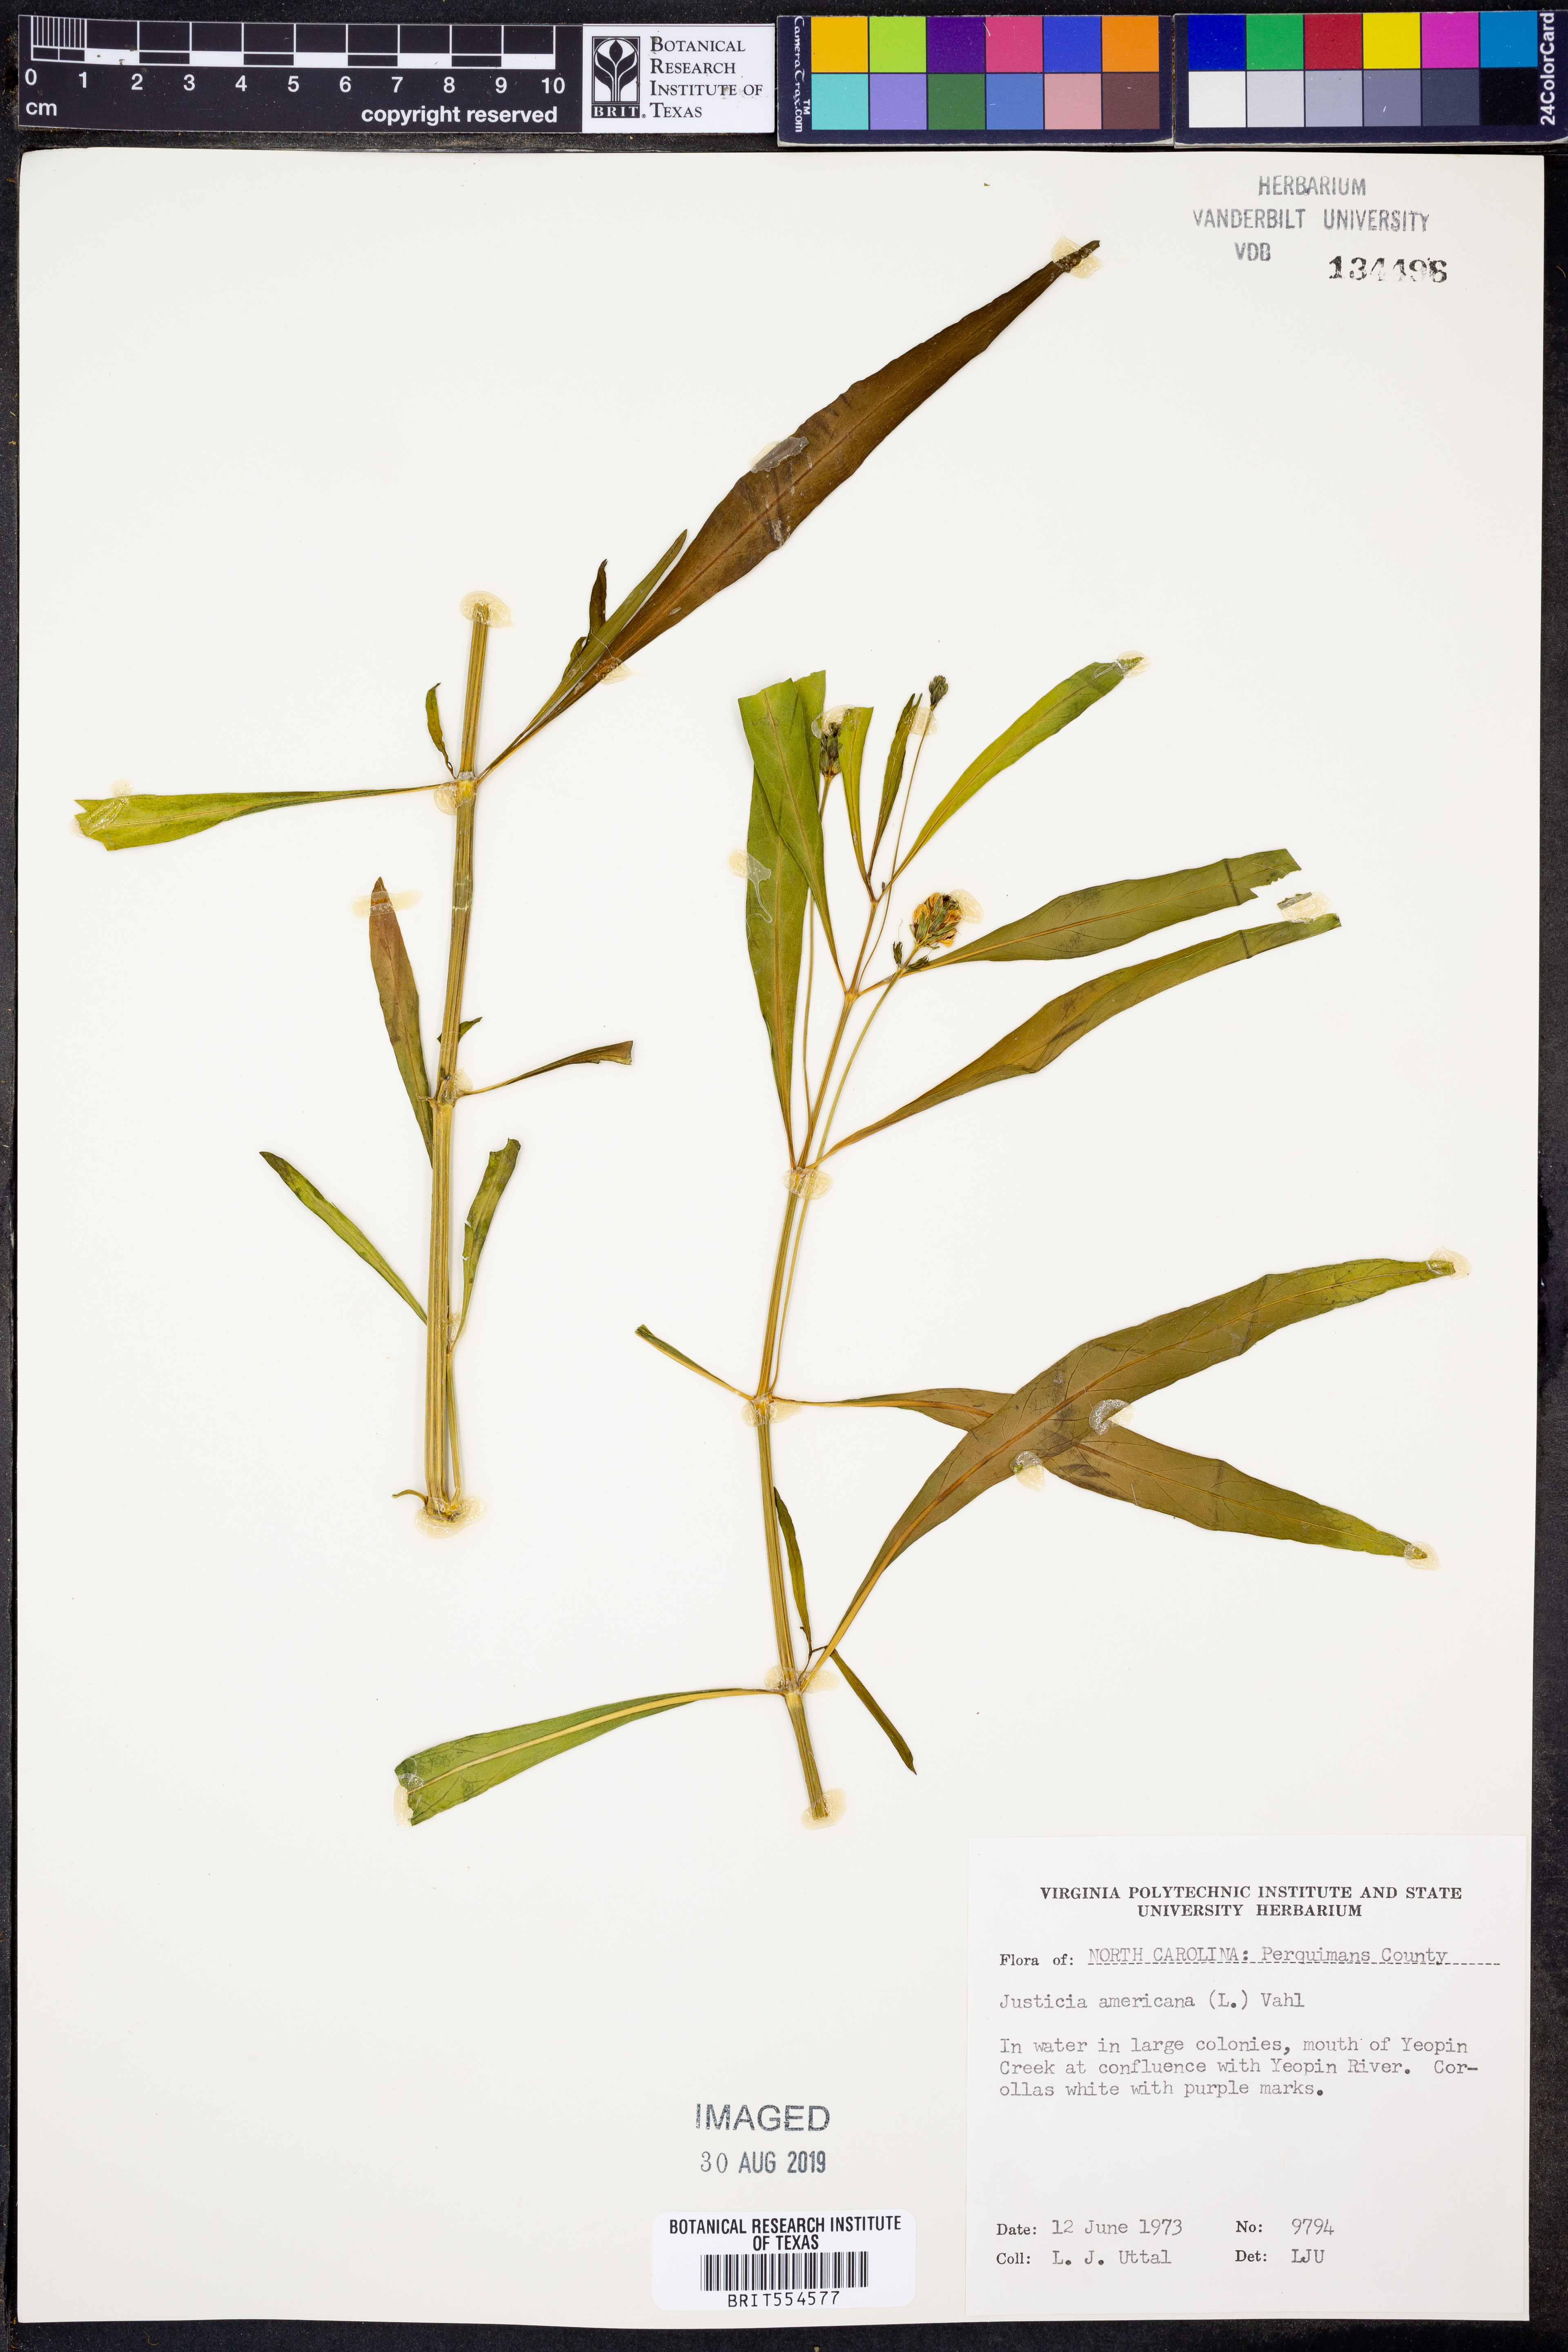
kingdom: Plantae
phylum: Tracheophyta
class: Magnoliopsida
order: Lamiales
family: Acanthaceae
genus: Dianthera
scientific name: Dianthera americana
